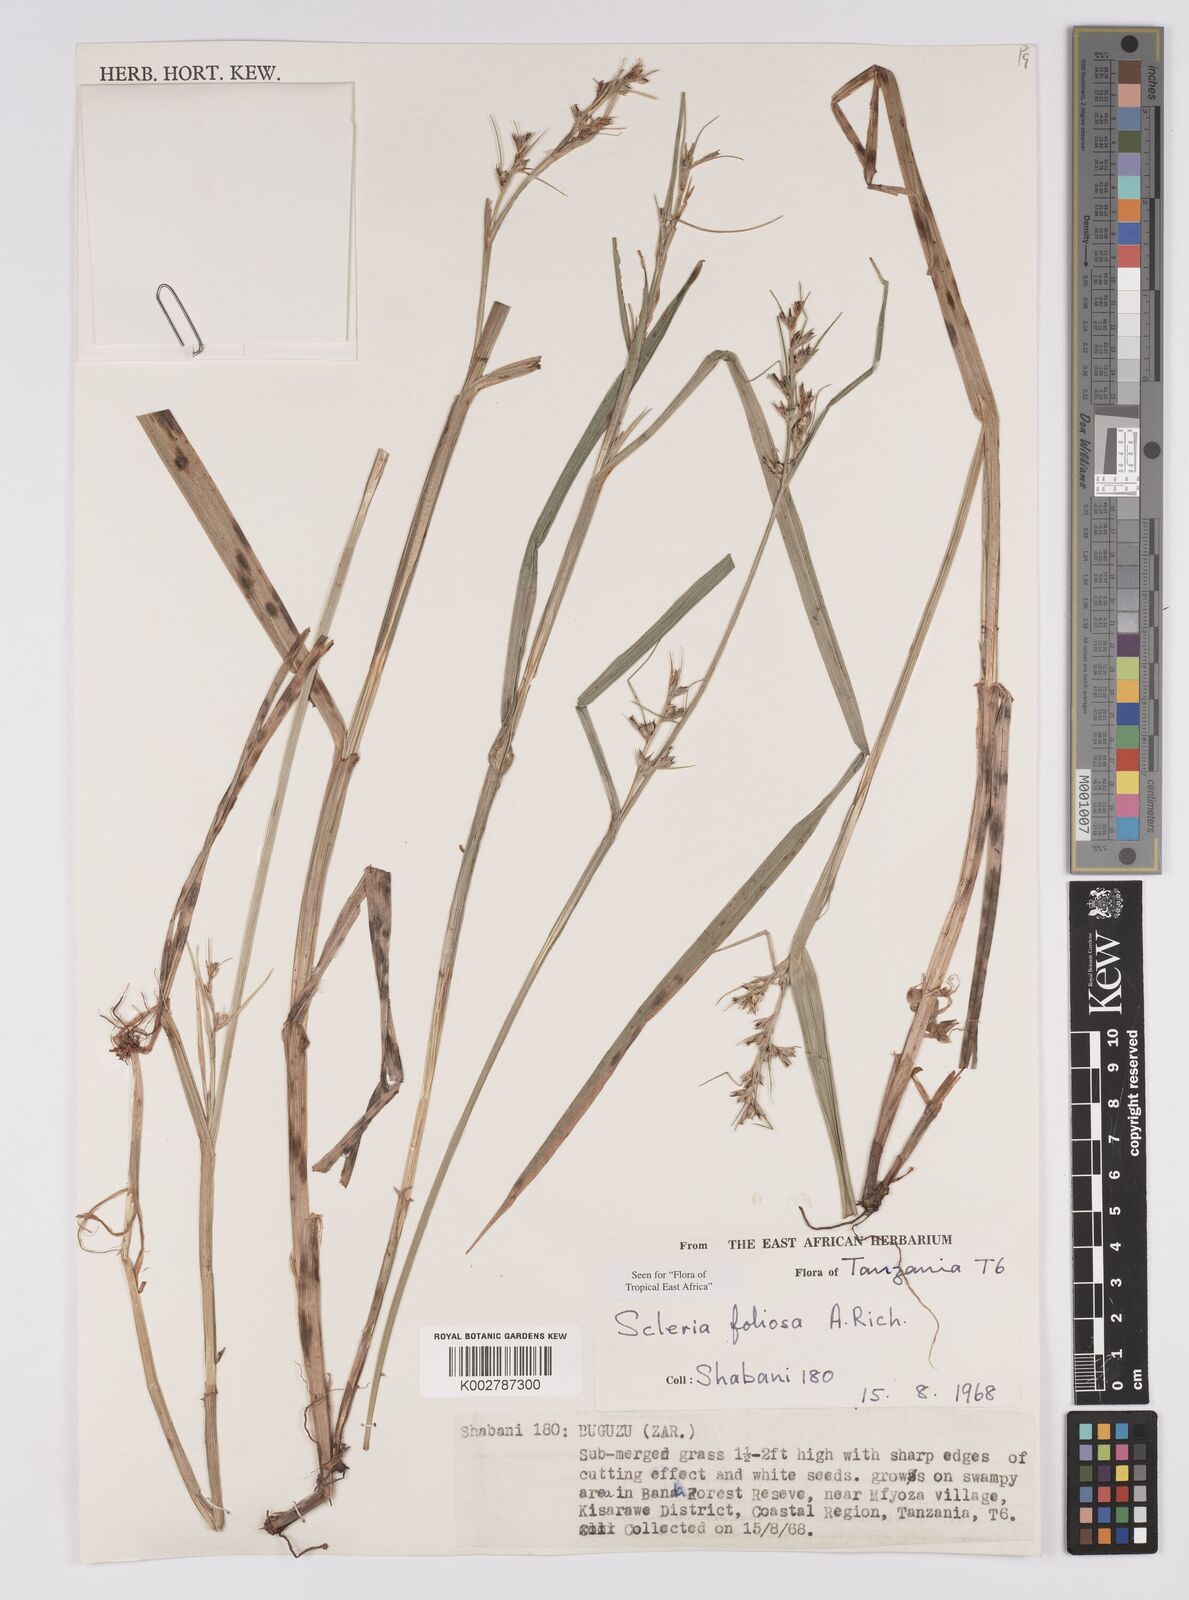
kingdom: Plantae
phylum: Tracheophyta
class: Liliopsida
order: Poales
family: Cyperaceae
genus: Scleria
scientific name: Scleria foliosa
